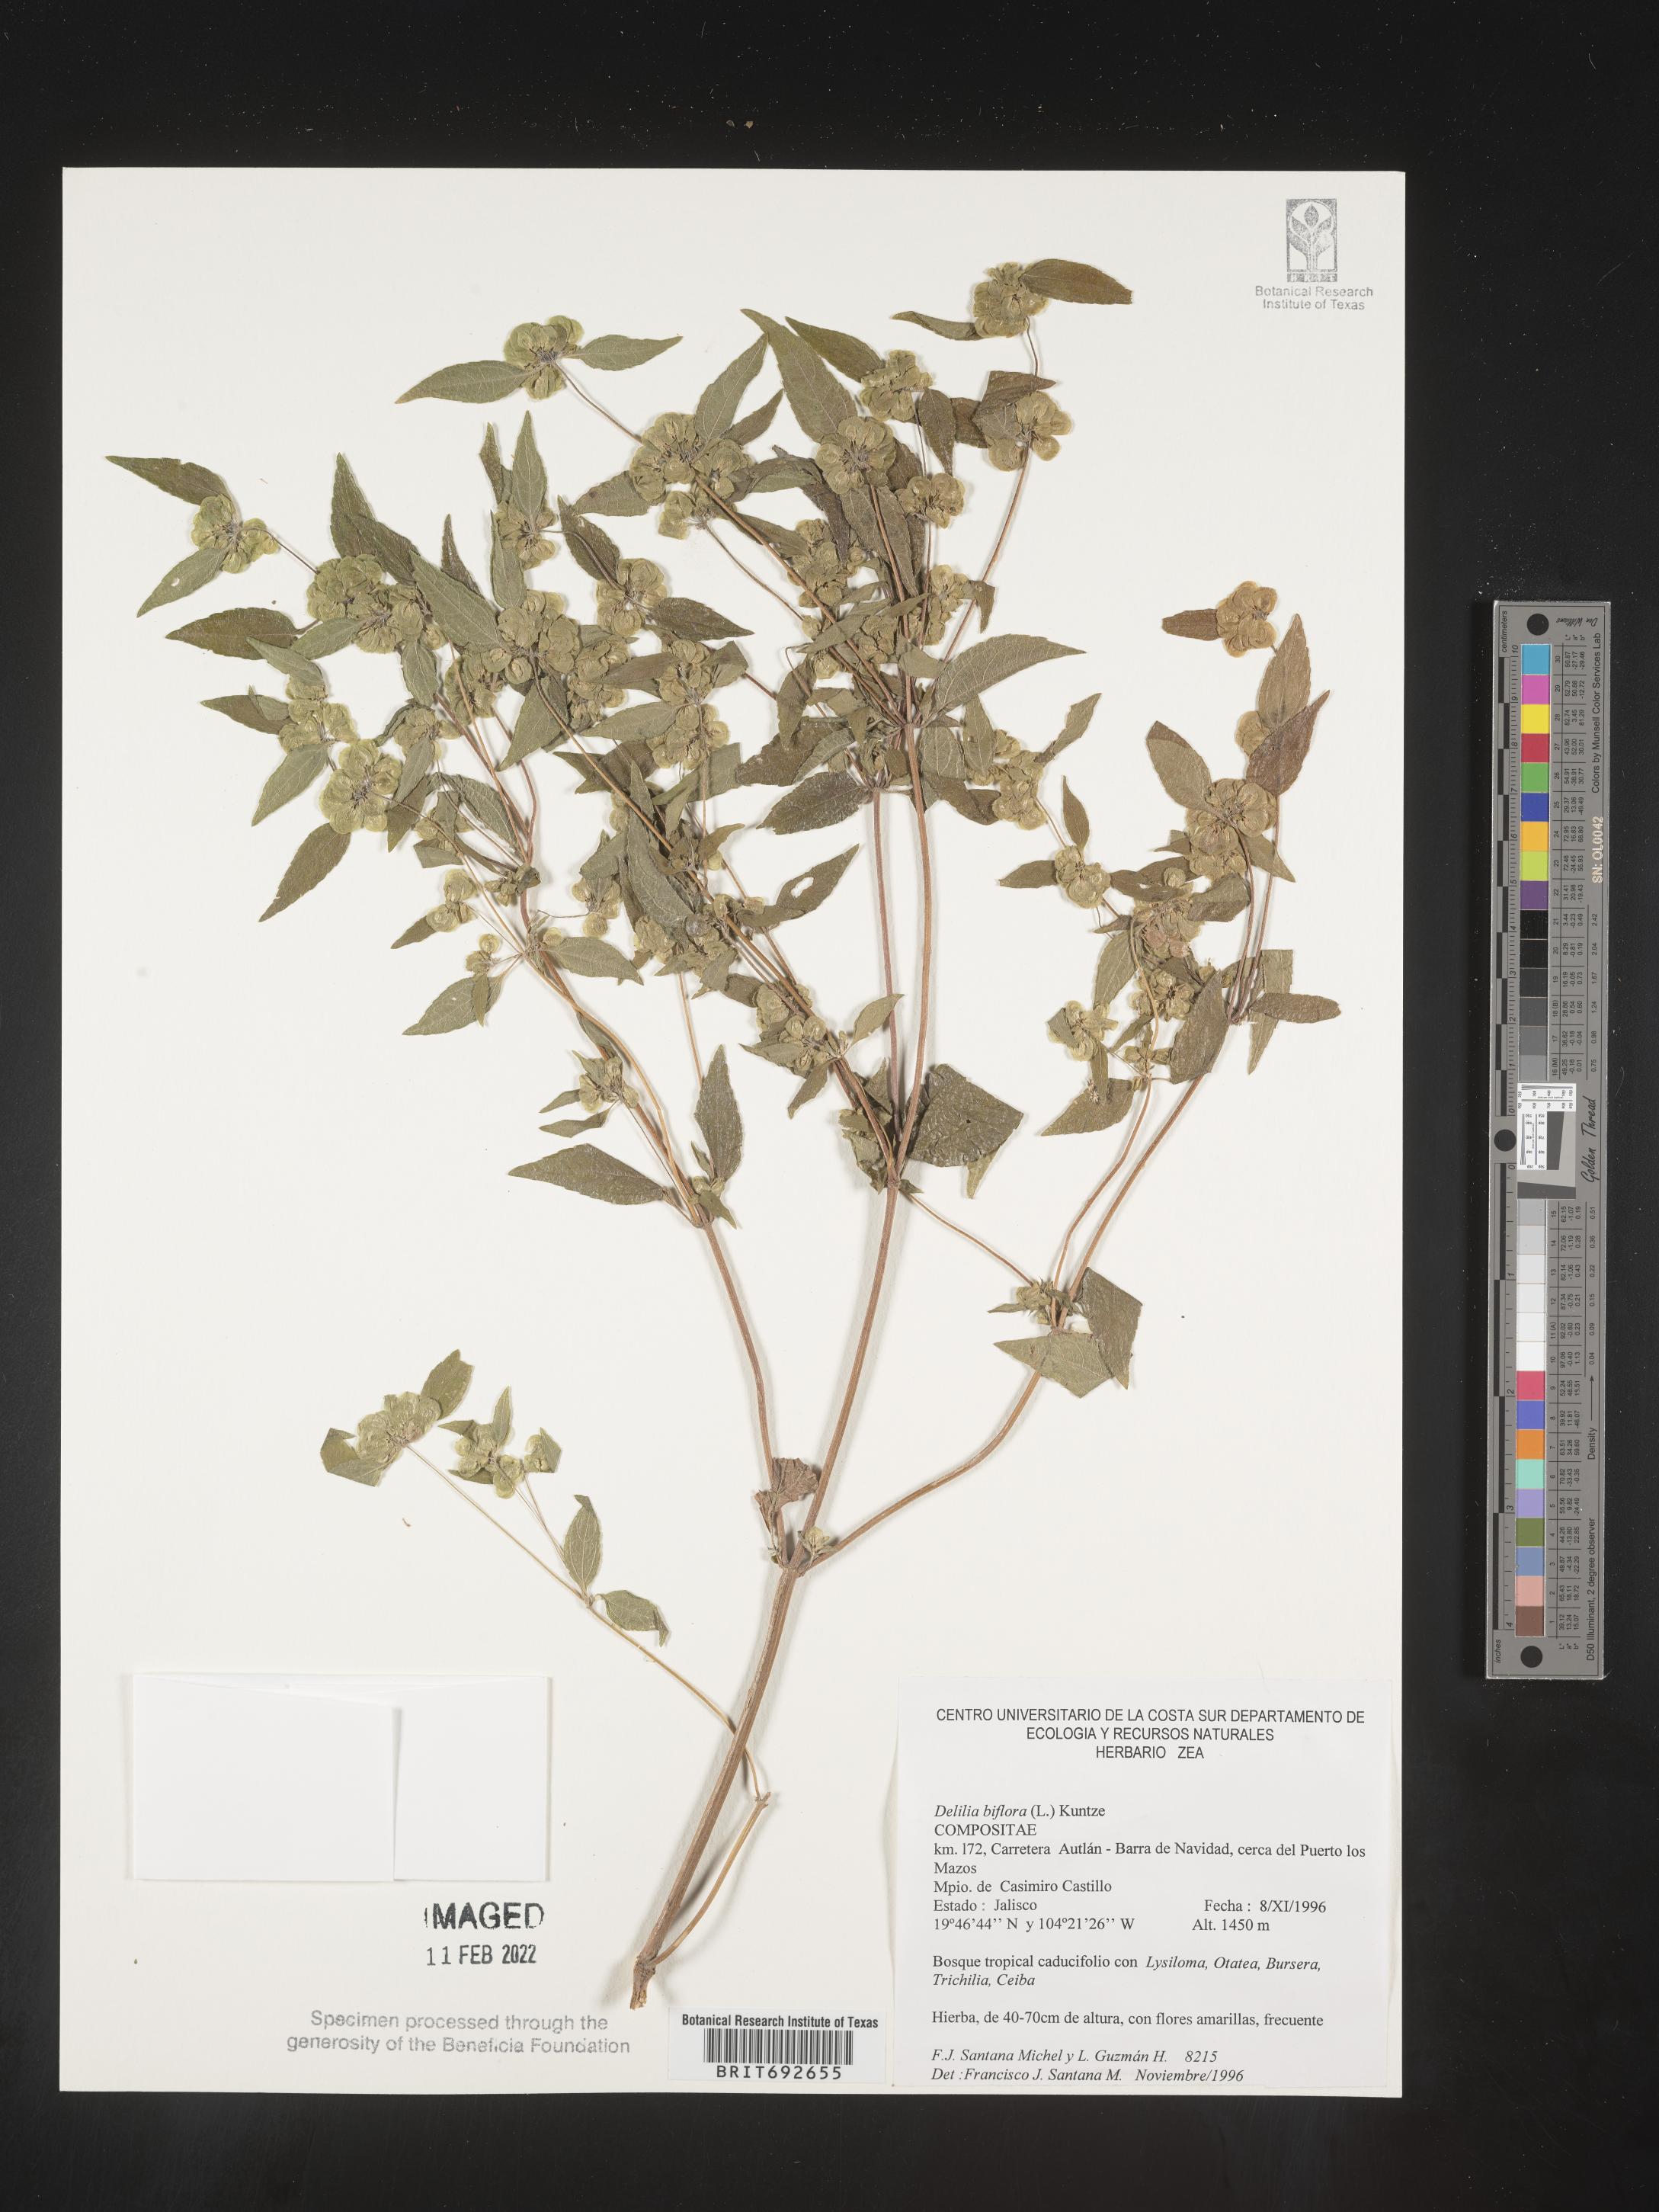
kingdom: Plantae
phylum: Tracheophyta
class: Magnoliopsida
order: Asterales
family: Asteraceae
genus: Delilia
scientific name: Delilia
